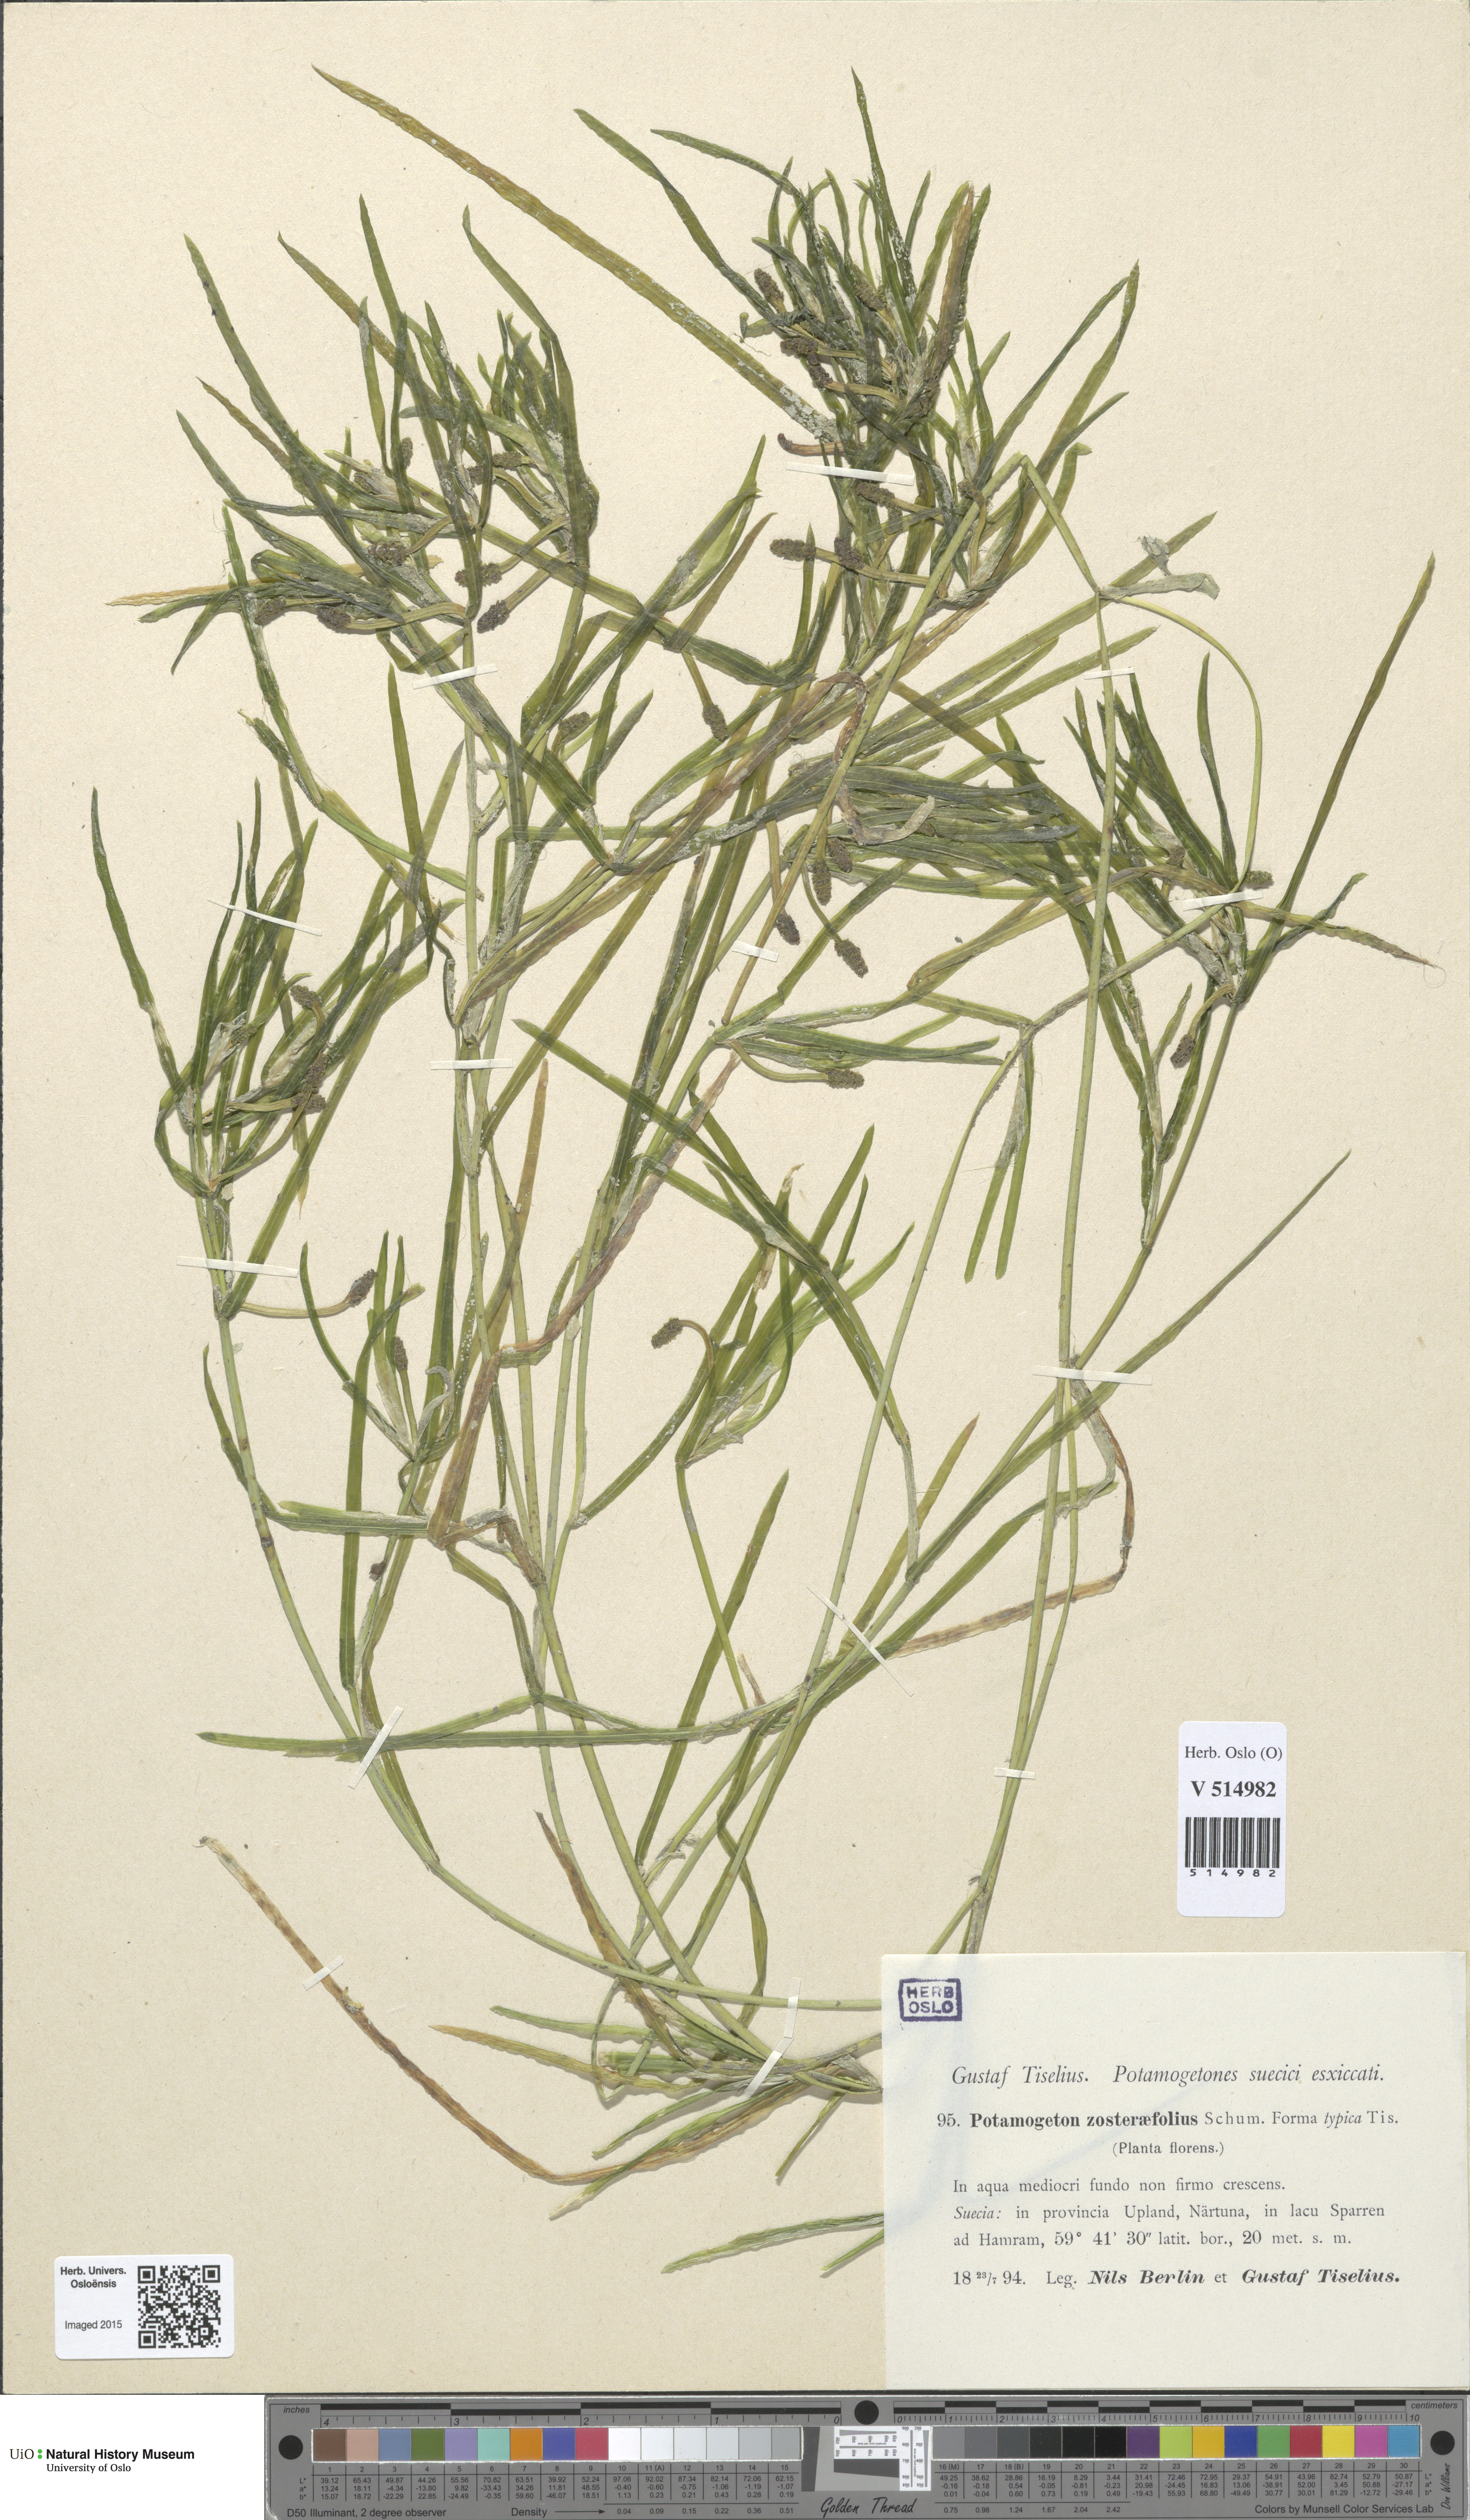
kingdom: Plantae
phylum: Tracheophyta
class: Liliopsida
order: Alismatales
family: Potamogetonaceae
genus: Potamogeton
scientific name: Potamogeton compressus
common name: Grass-wrack pondweed
